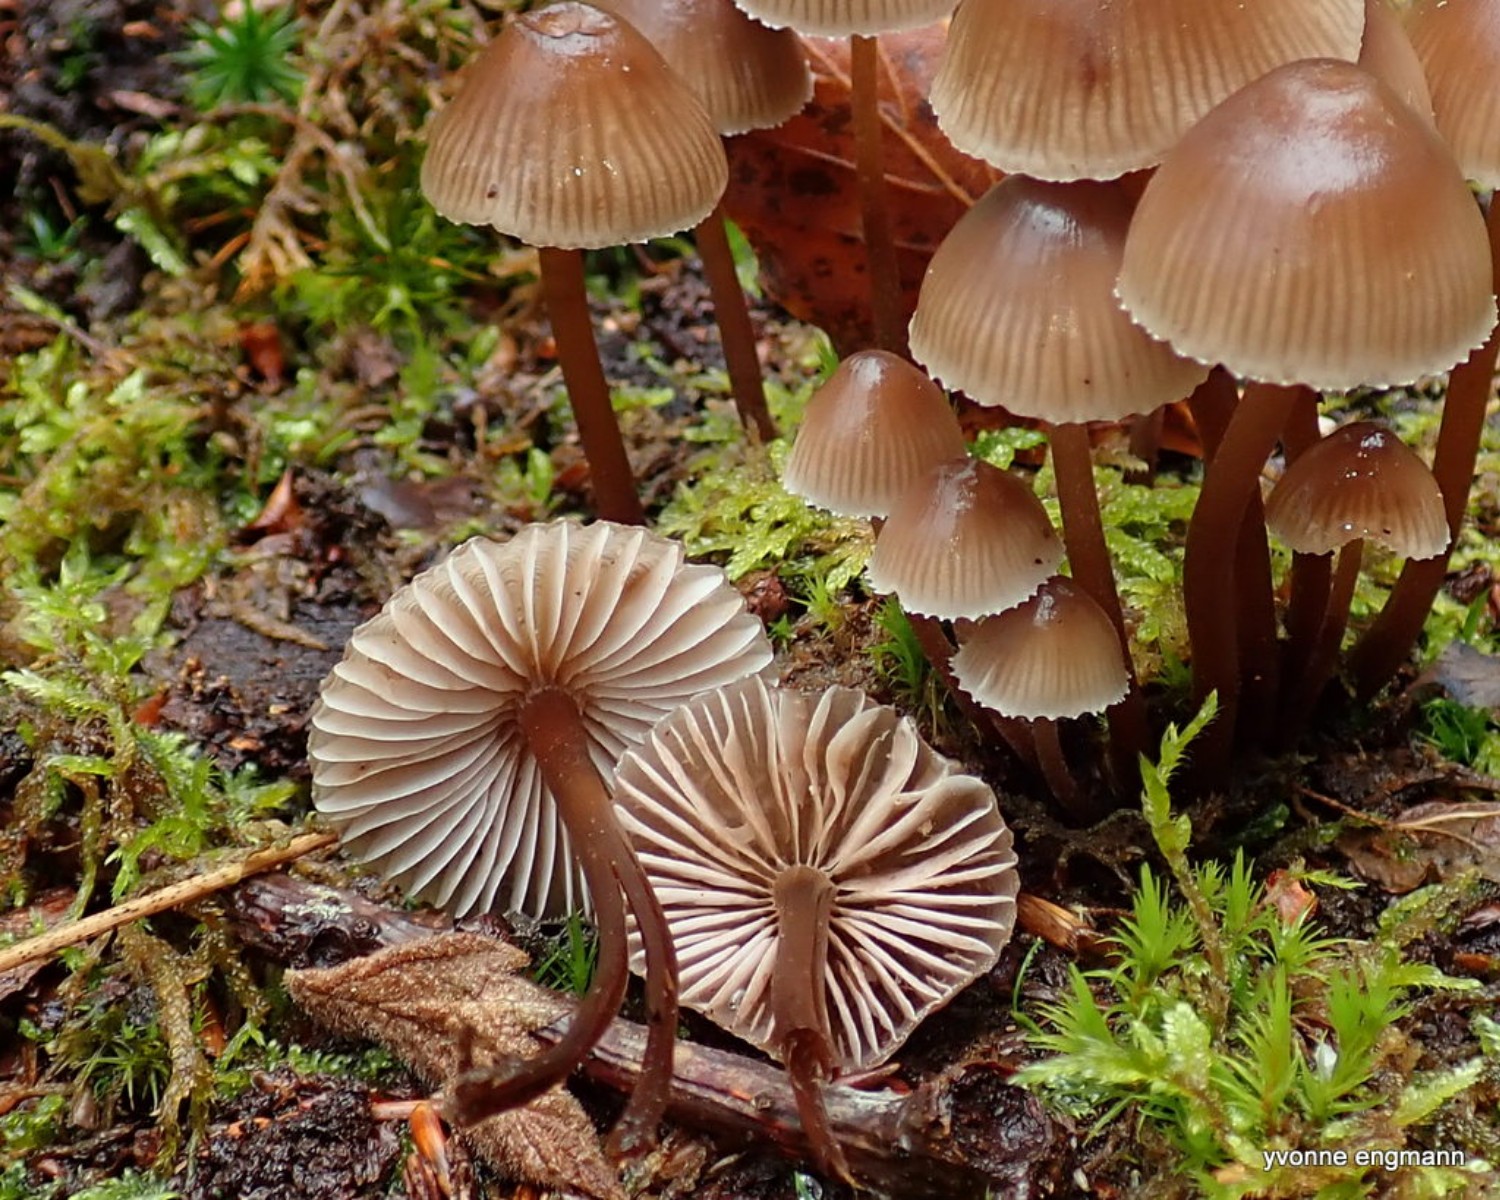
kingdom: Fungi
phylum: Basidiomycota
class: Agaricomycetes
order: Agaricales
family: Mycenaceae
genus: Mycena
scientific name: Mycena inclinata
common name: nikkende huesvamp
